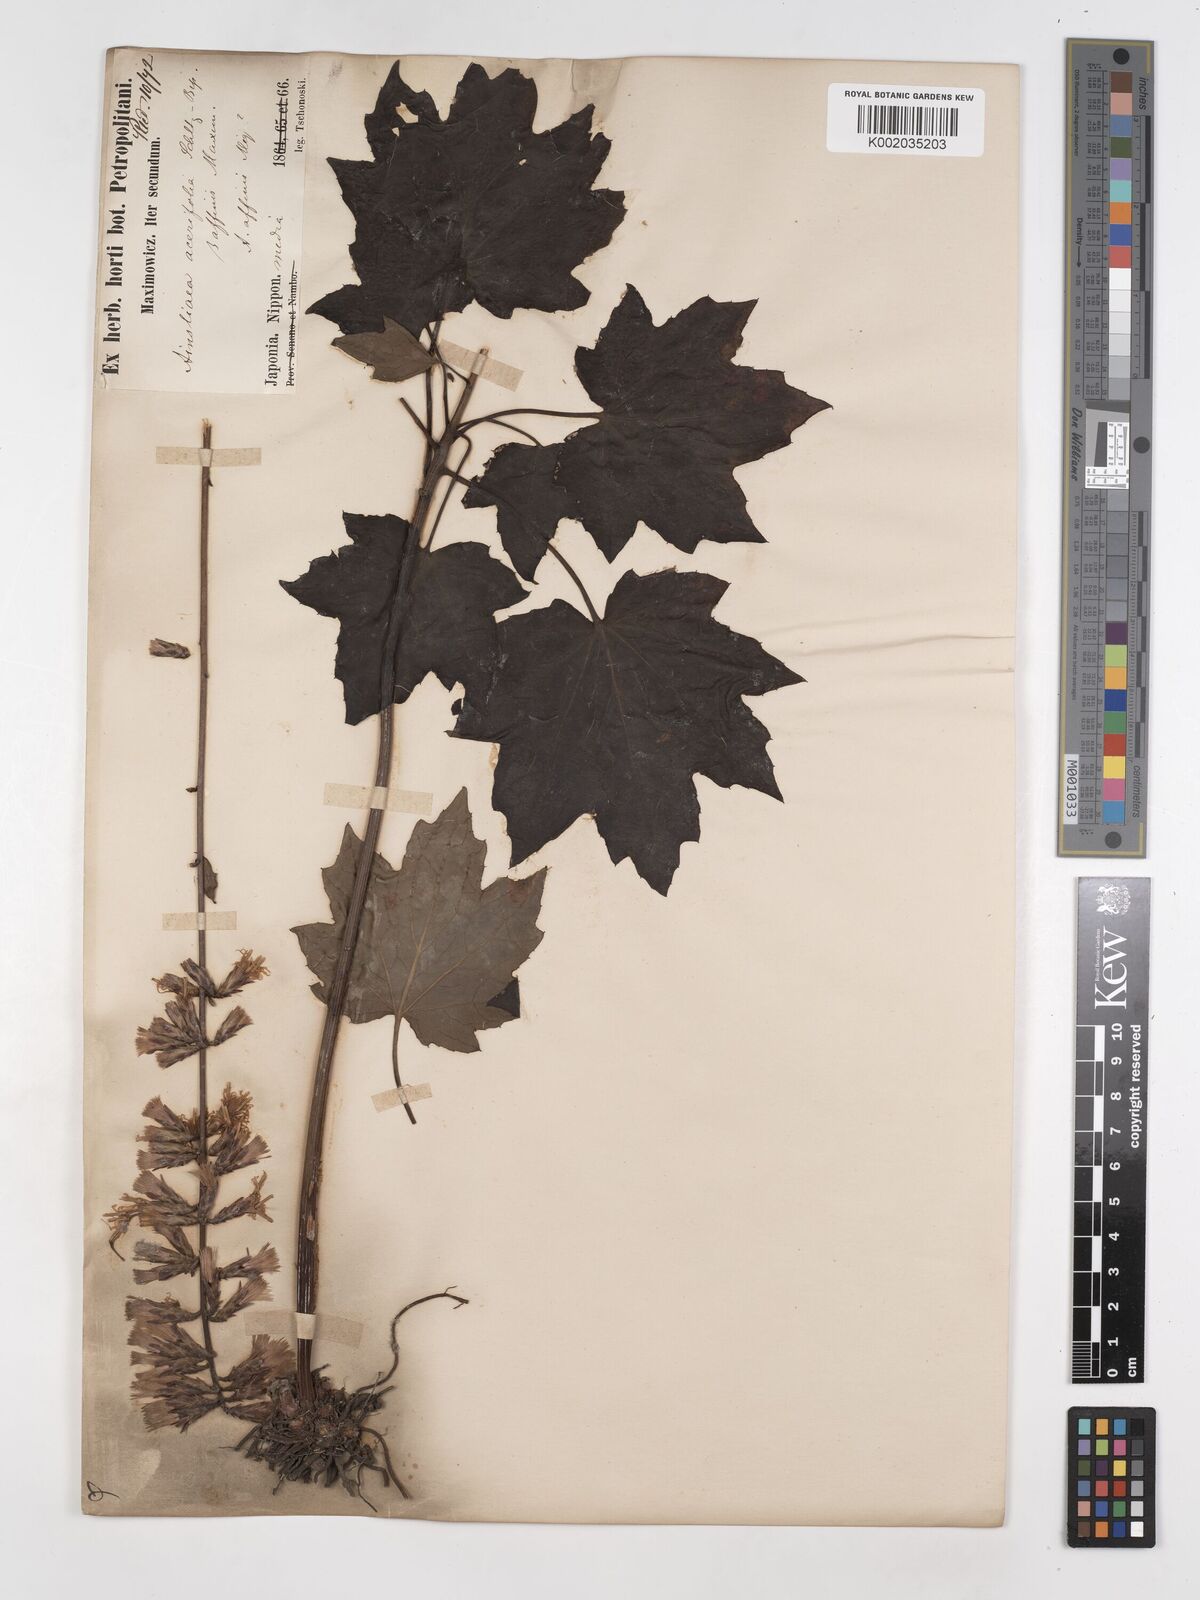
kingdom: Plantae
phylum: Tracheophyta
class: Magnoliopsida
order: Asterales
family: Asteraceae
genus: Ainsliaea
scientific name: Ainsliaea acerifolia
